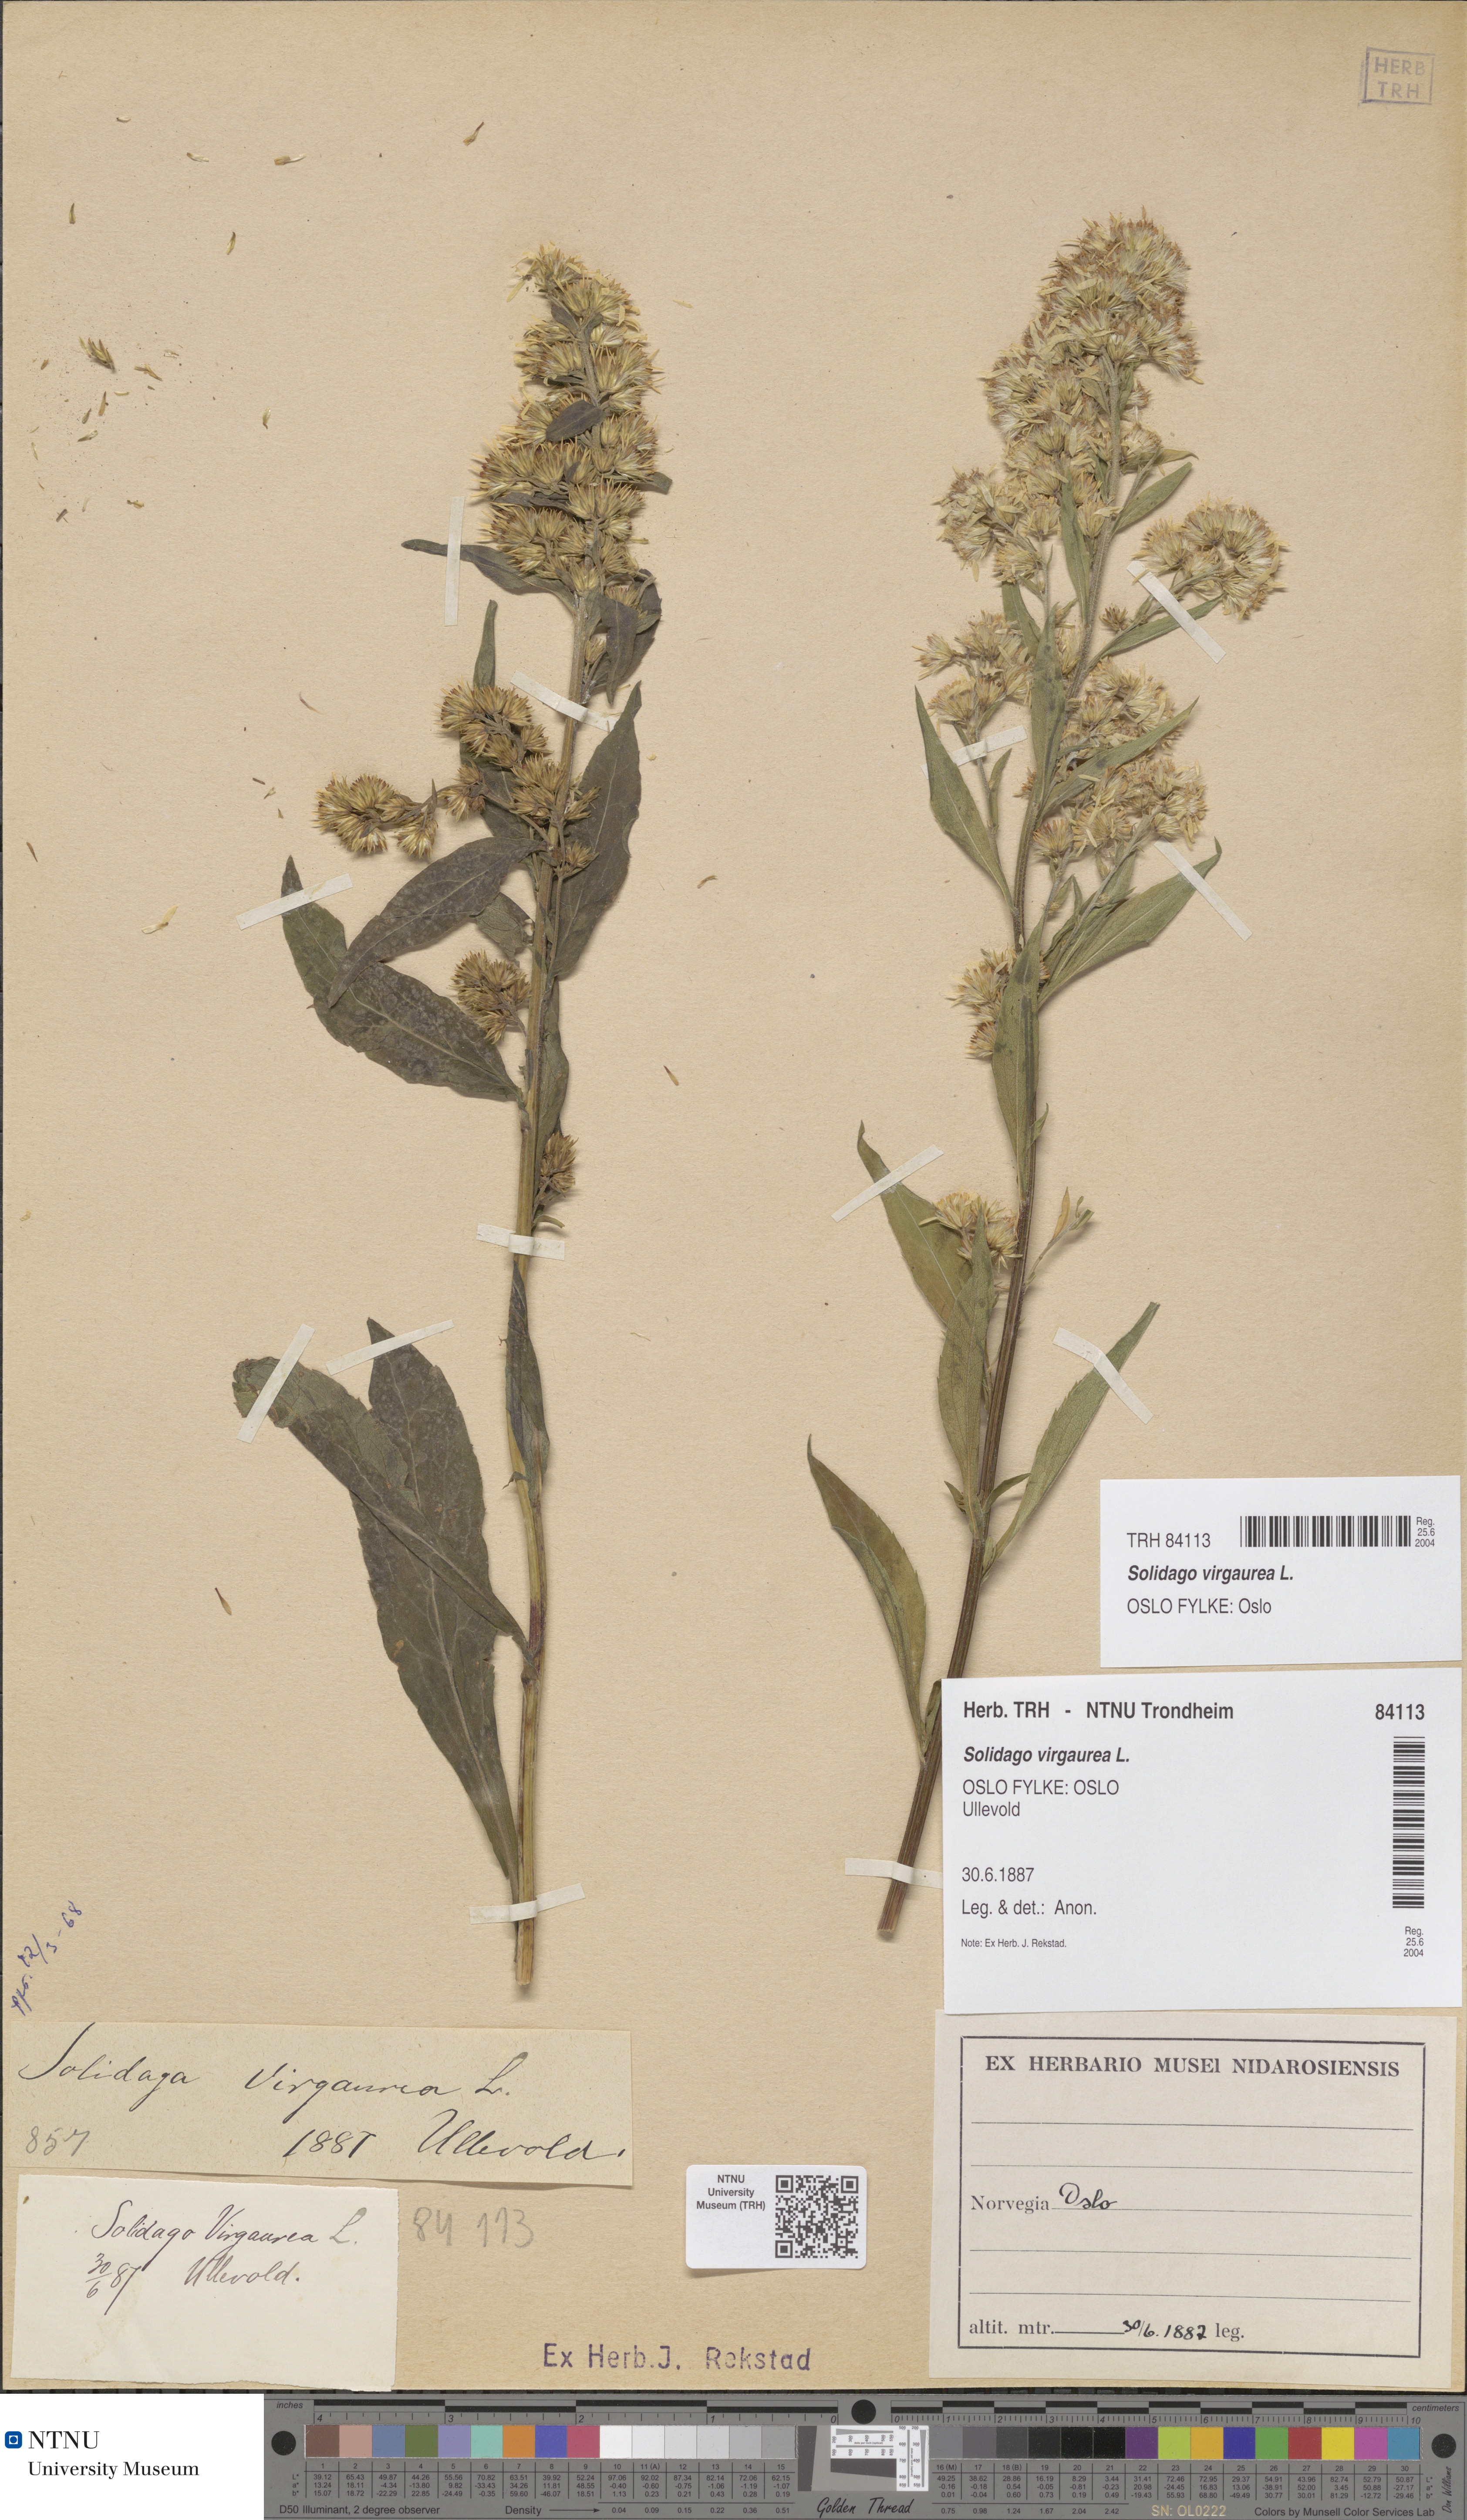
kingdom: Plantae
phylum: Tracheophyta
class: Magnoliopsida
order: Asterales
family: Asteraceae
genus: Solidago
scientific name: Solidago virgaurea
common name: Goldenrod
